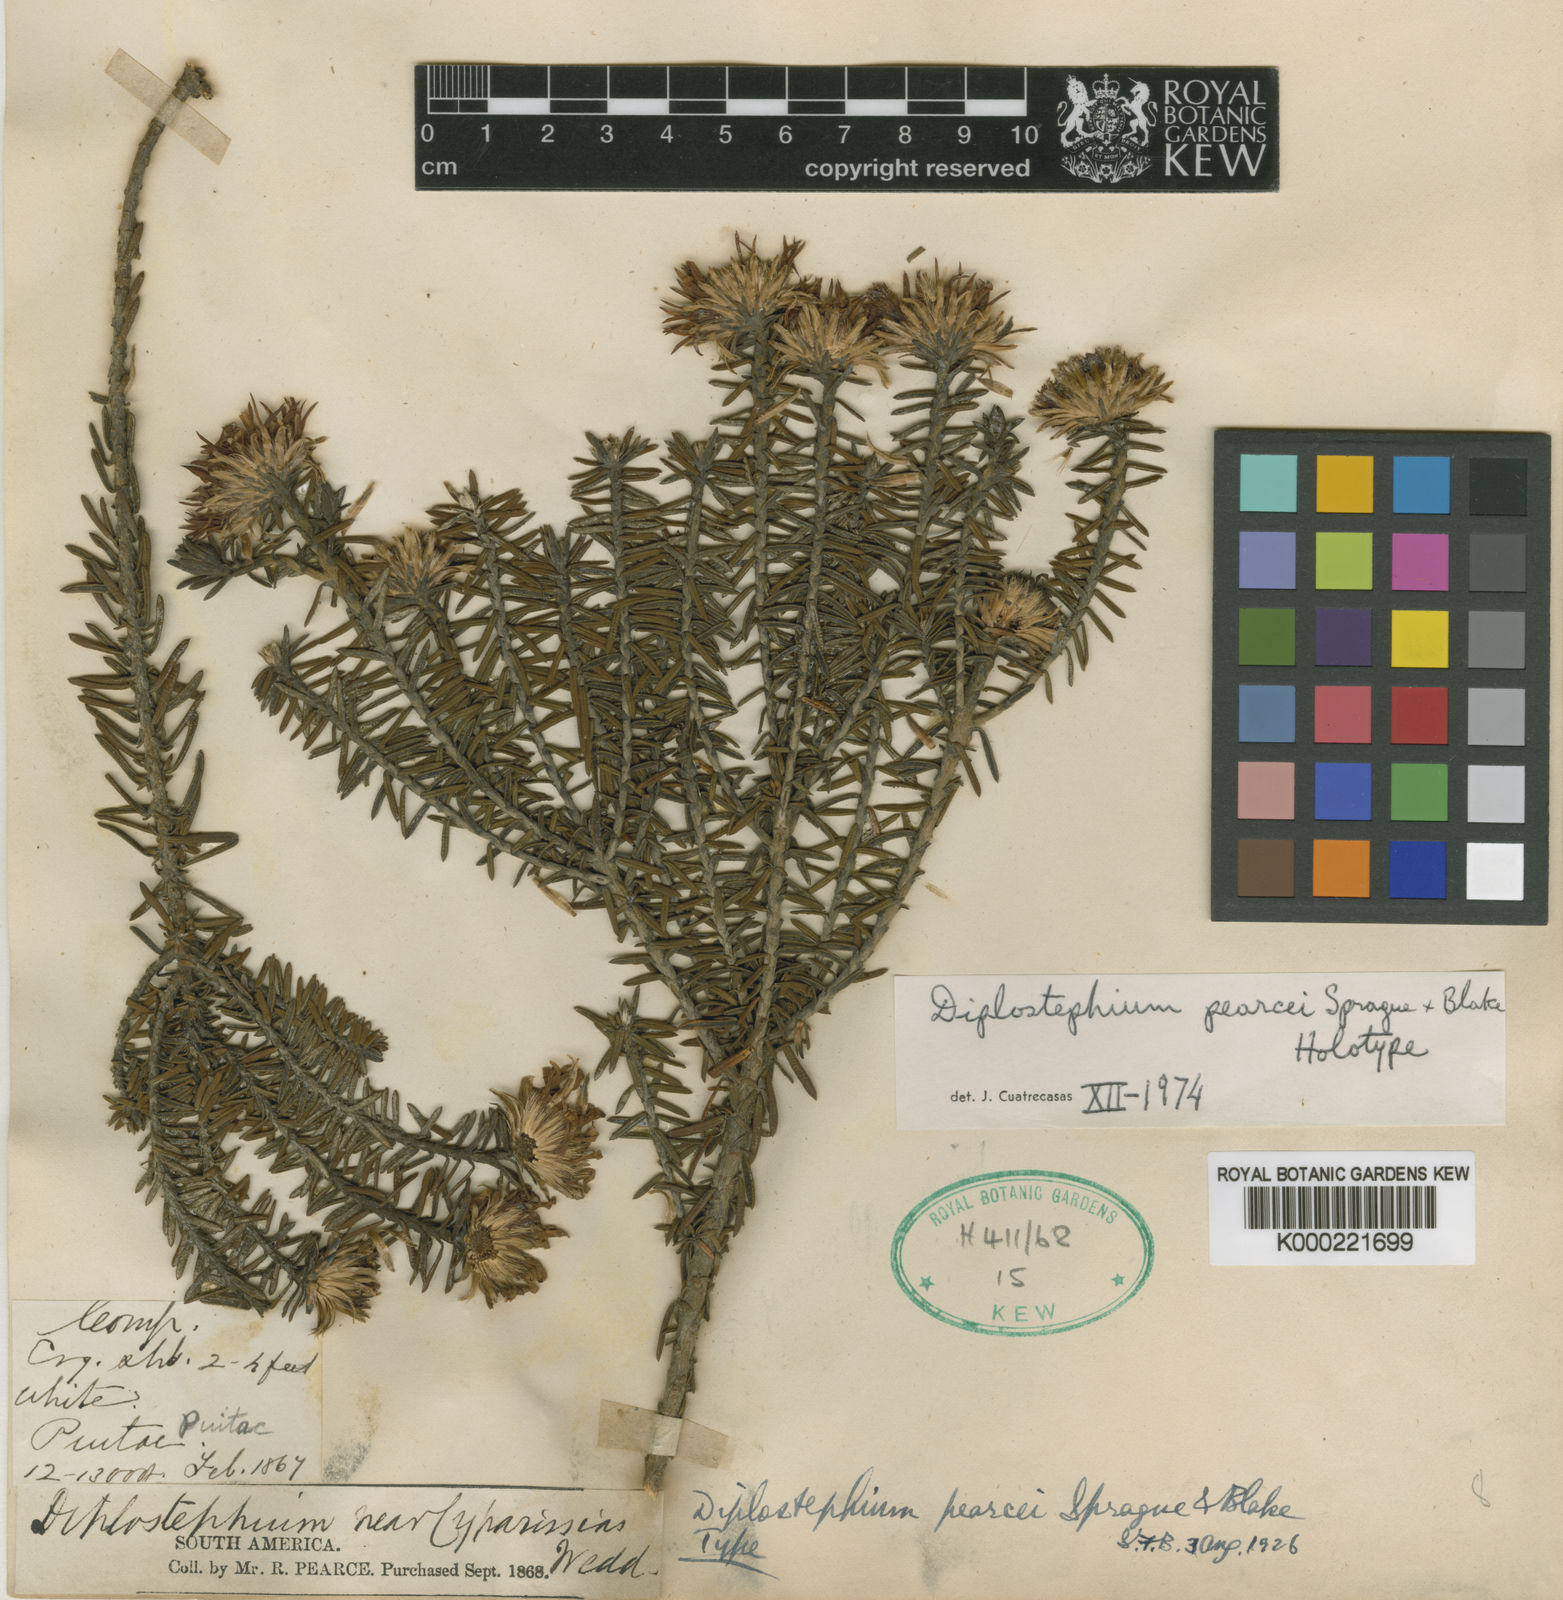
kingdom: Plantae
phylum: Tracheophyta
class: Magnoliopsida
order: Asterales
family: Asteraceae
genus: Diplostephium
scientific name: Diplostephium pearcei
